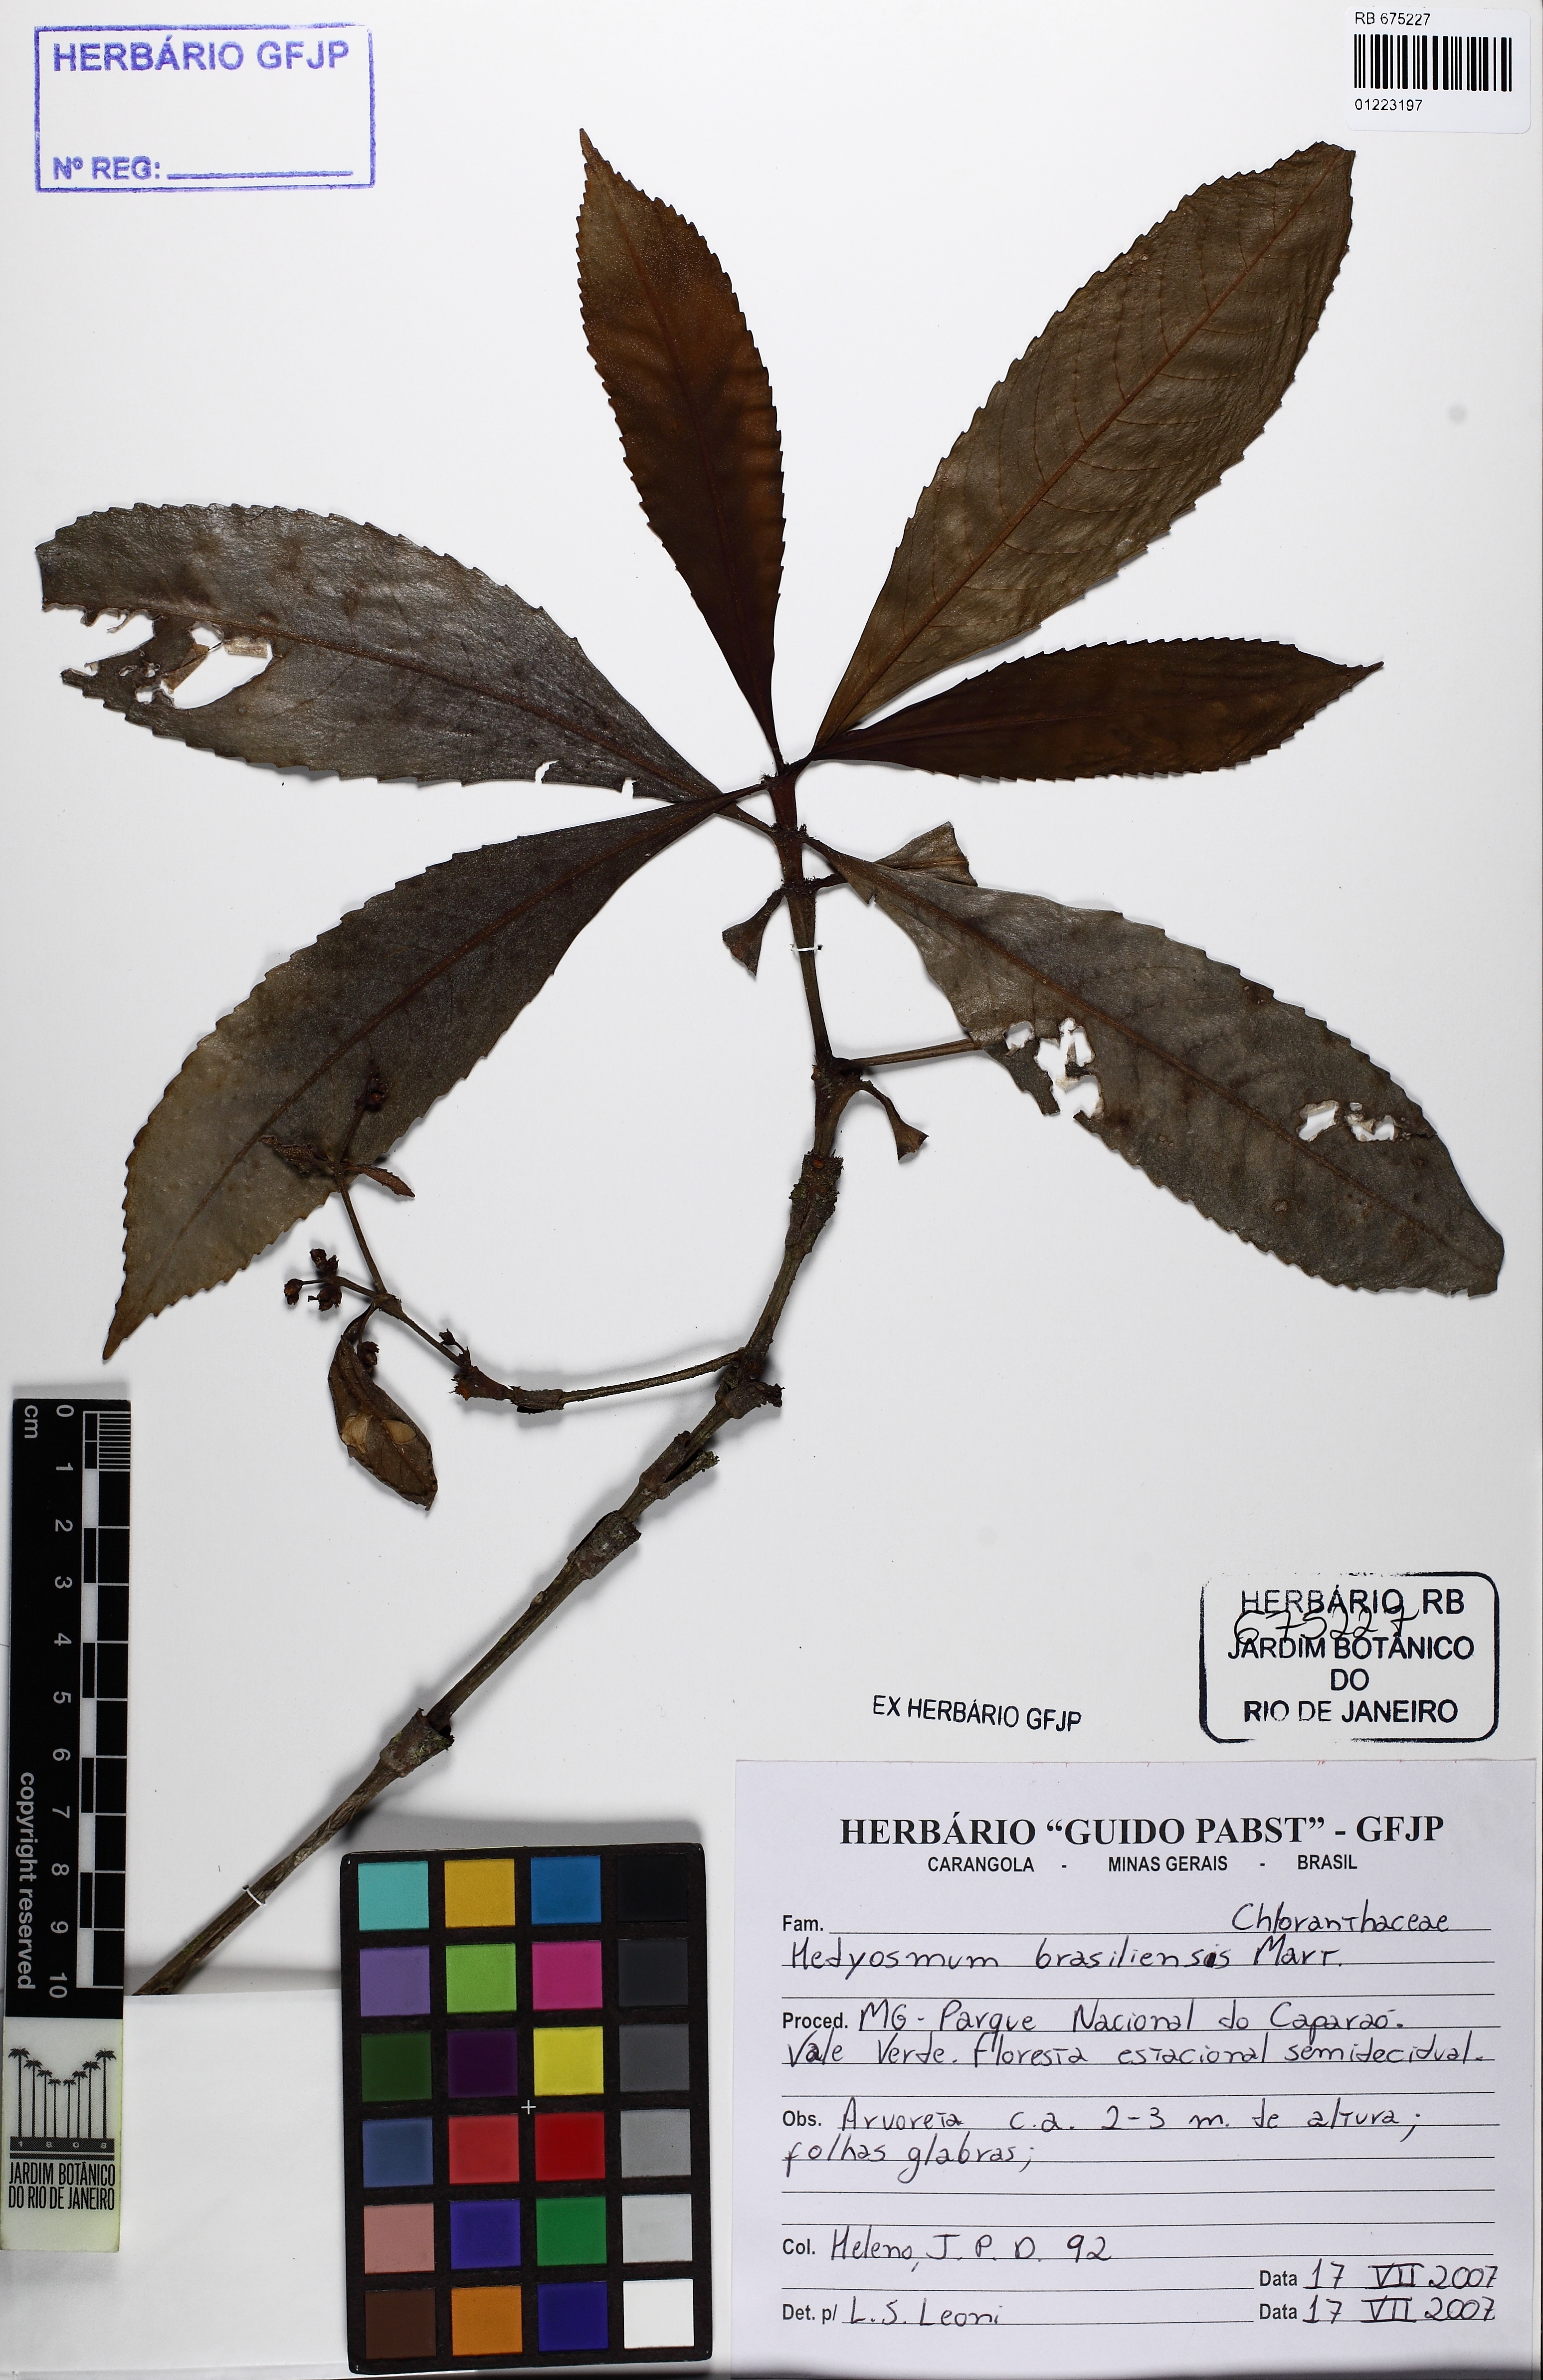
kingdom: Plantae
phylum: Tracheophyta
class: Magnoliopsida
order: Chloranthales
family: Chloranthaceae
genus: Hedyosmum
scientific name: Hedyosmum brasiliense
